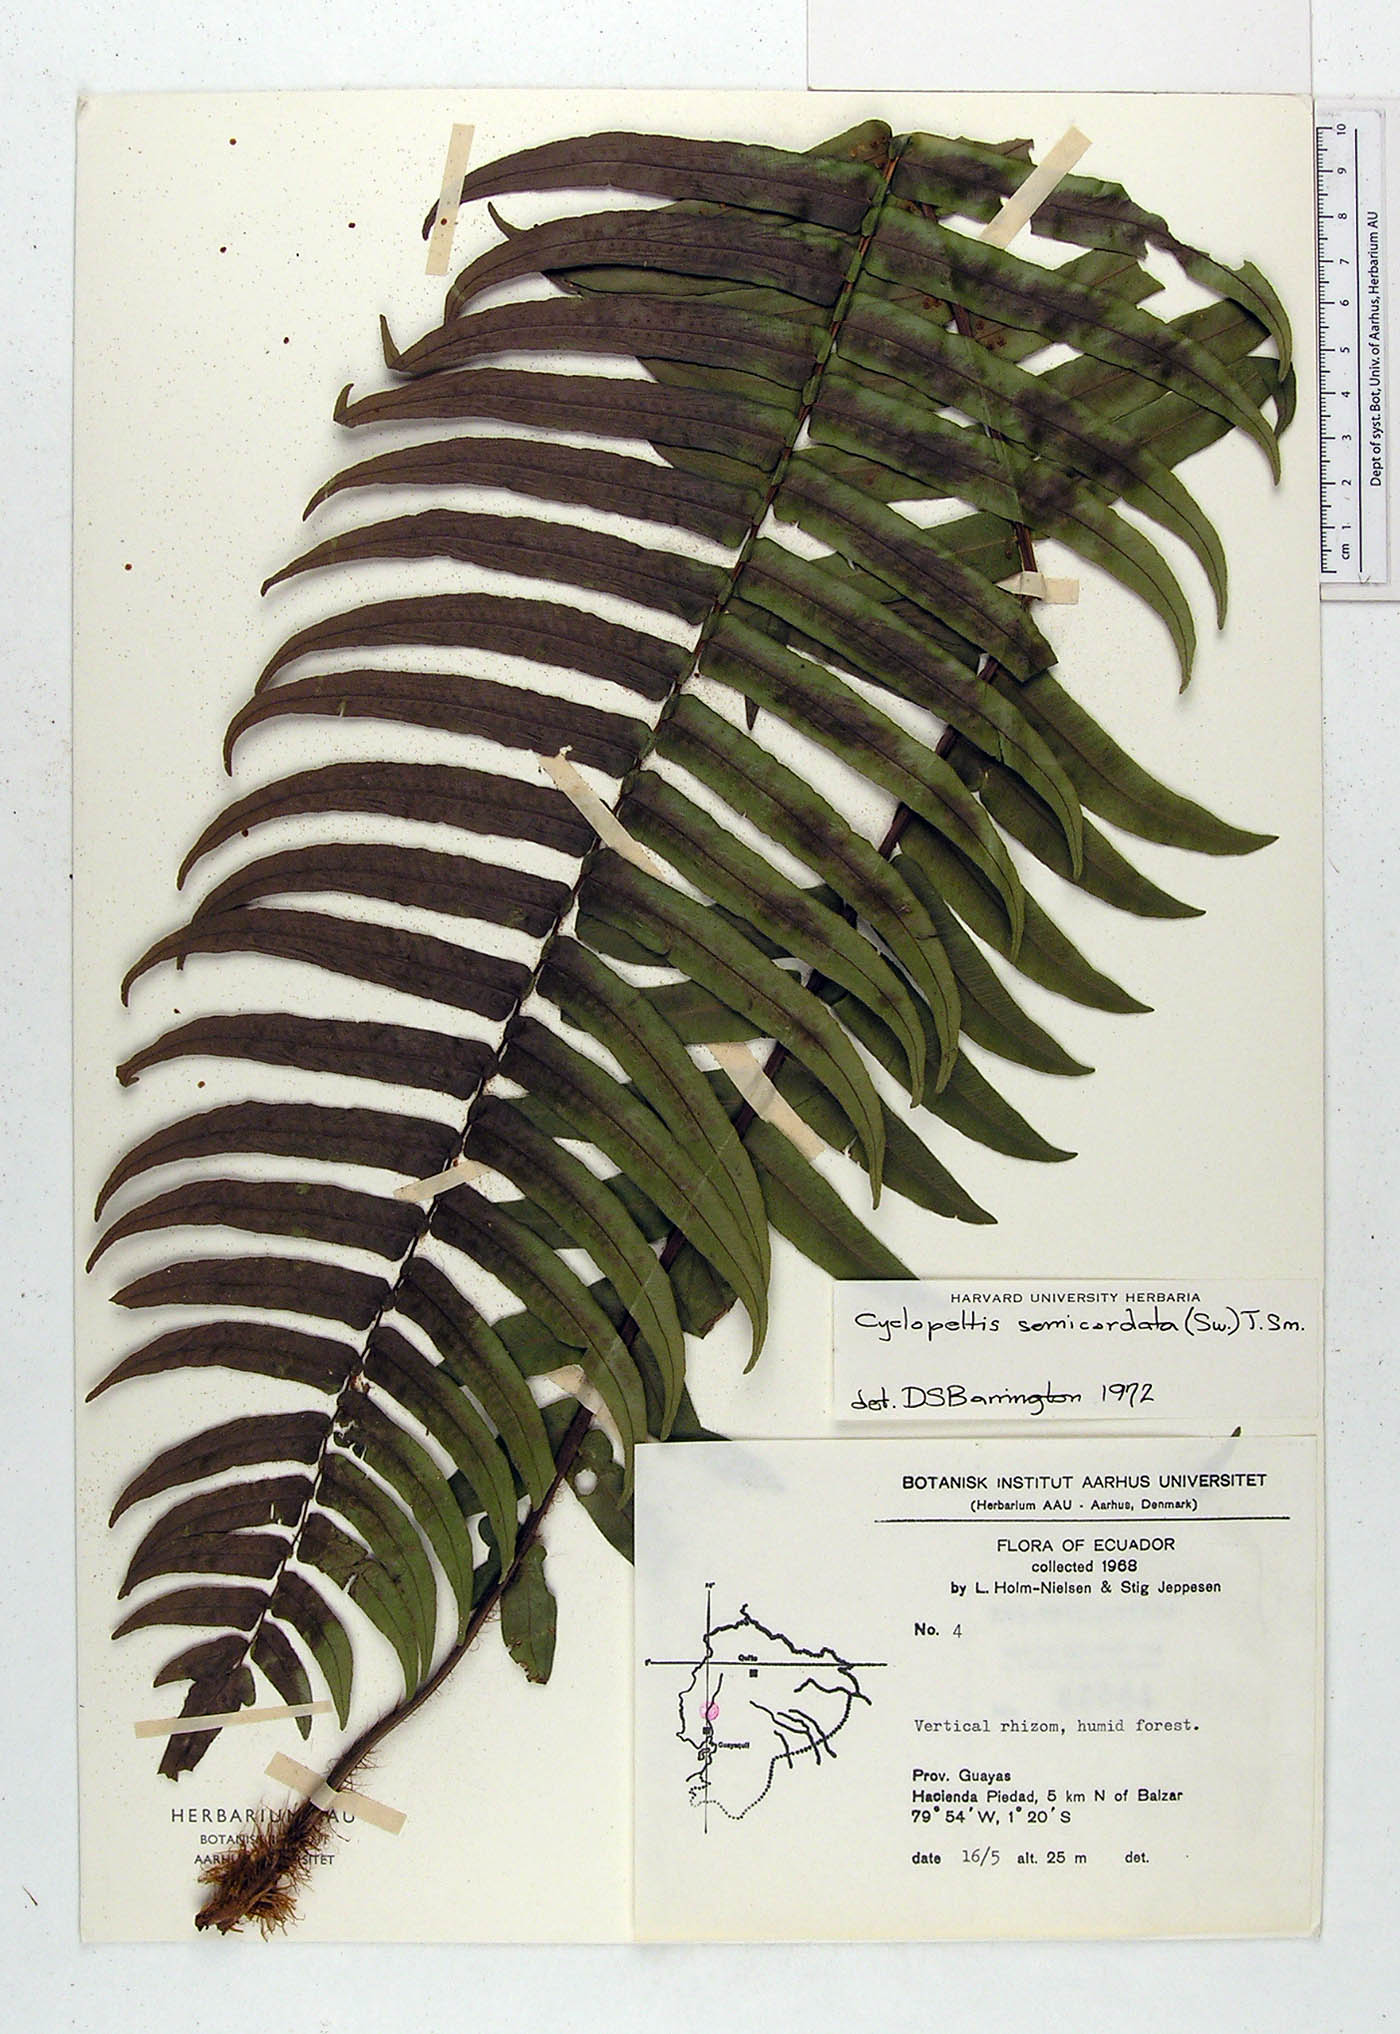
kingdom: Plantae
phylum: Tracheophyta
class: Polypodiopsida
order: Polypodiales
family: Lomariopsidaceae
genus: Cyclopeltis
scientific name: Cyclopeltis semicordata
